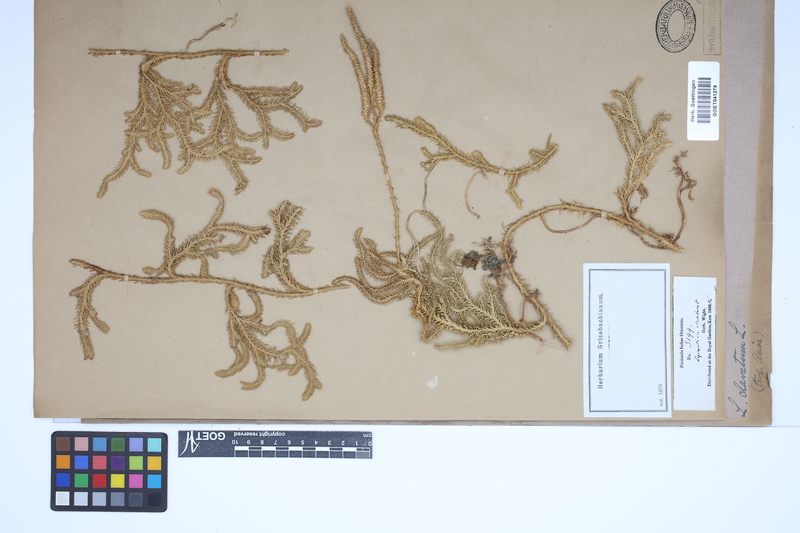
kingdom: Plantae
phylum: Tracheophyta
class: Lycopodiopsida
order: Lycopodiales
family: Lycopodiaceae
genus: Lycopodium
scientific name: Lycopodium clavatum
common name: Stag's-horn clubmoss
